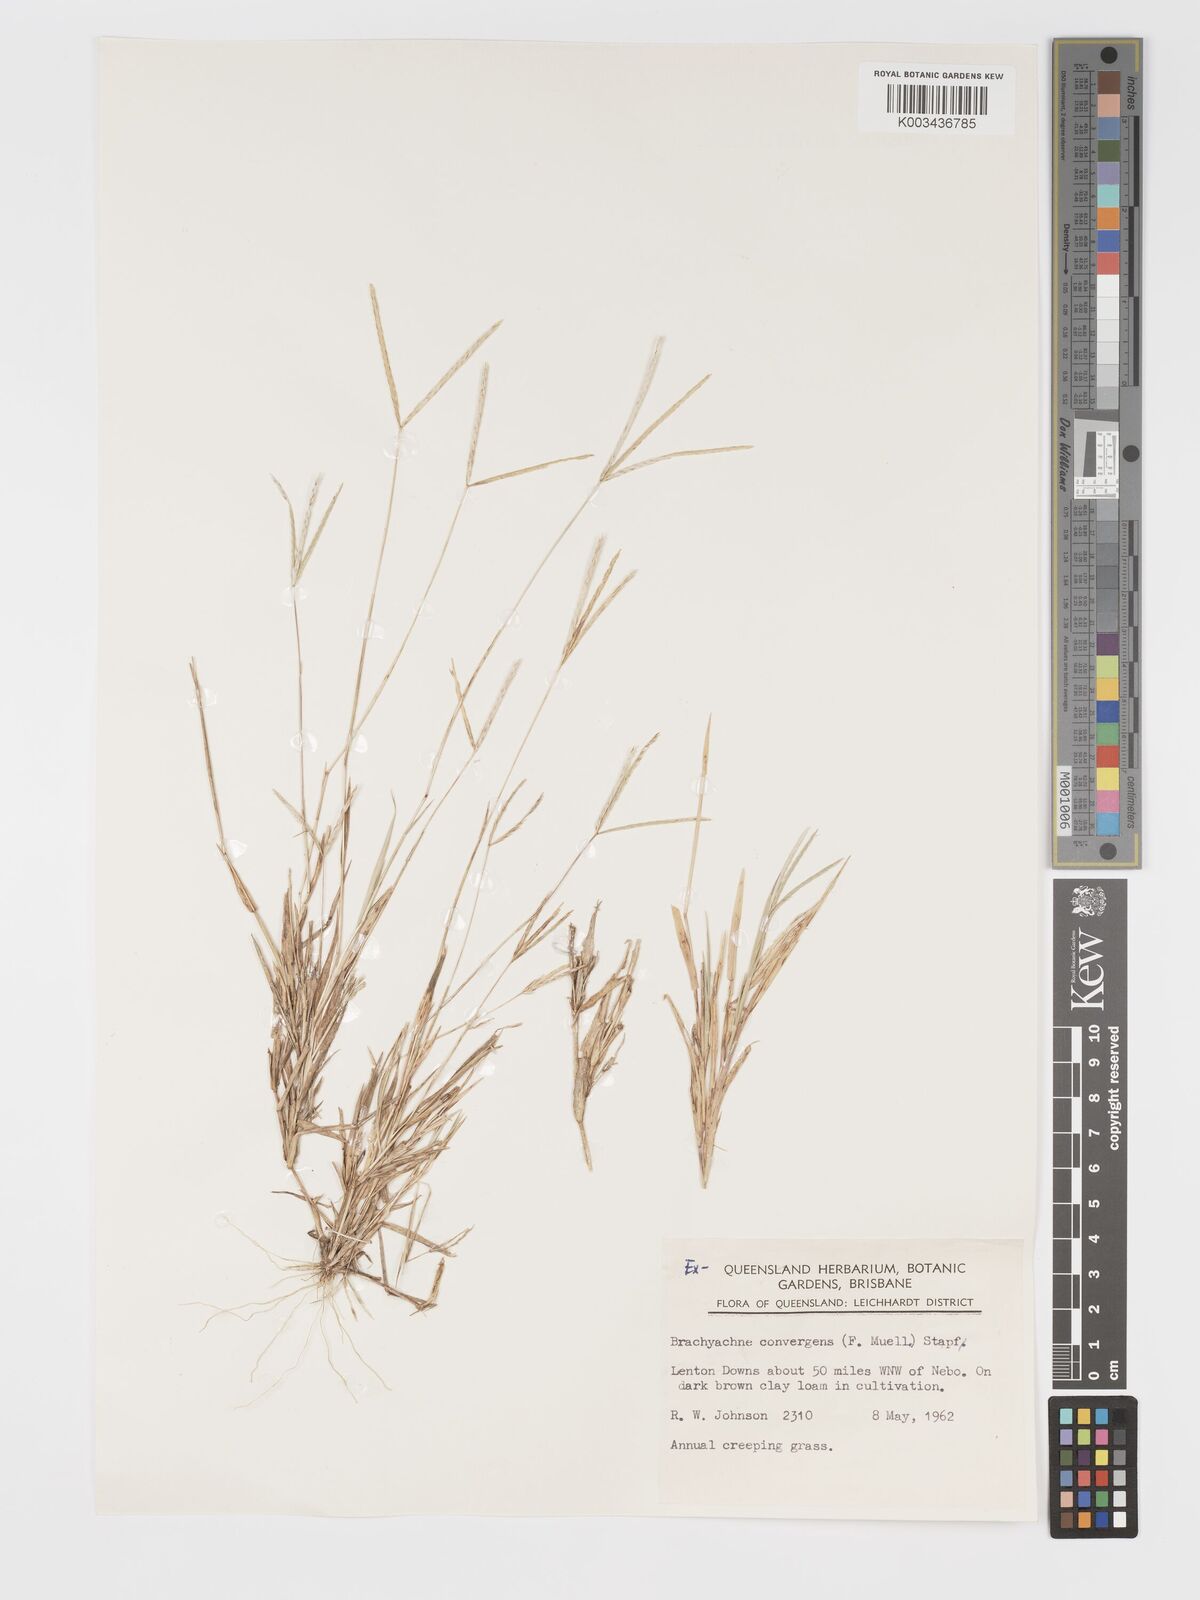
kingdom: Plantae
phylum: Tracheophyta
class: Liliopsida
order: Poales
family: Poaceae
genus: Cynodon
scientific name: Cynodon convergens
